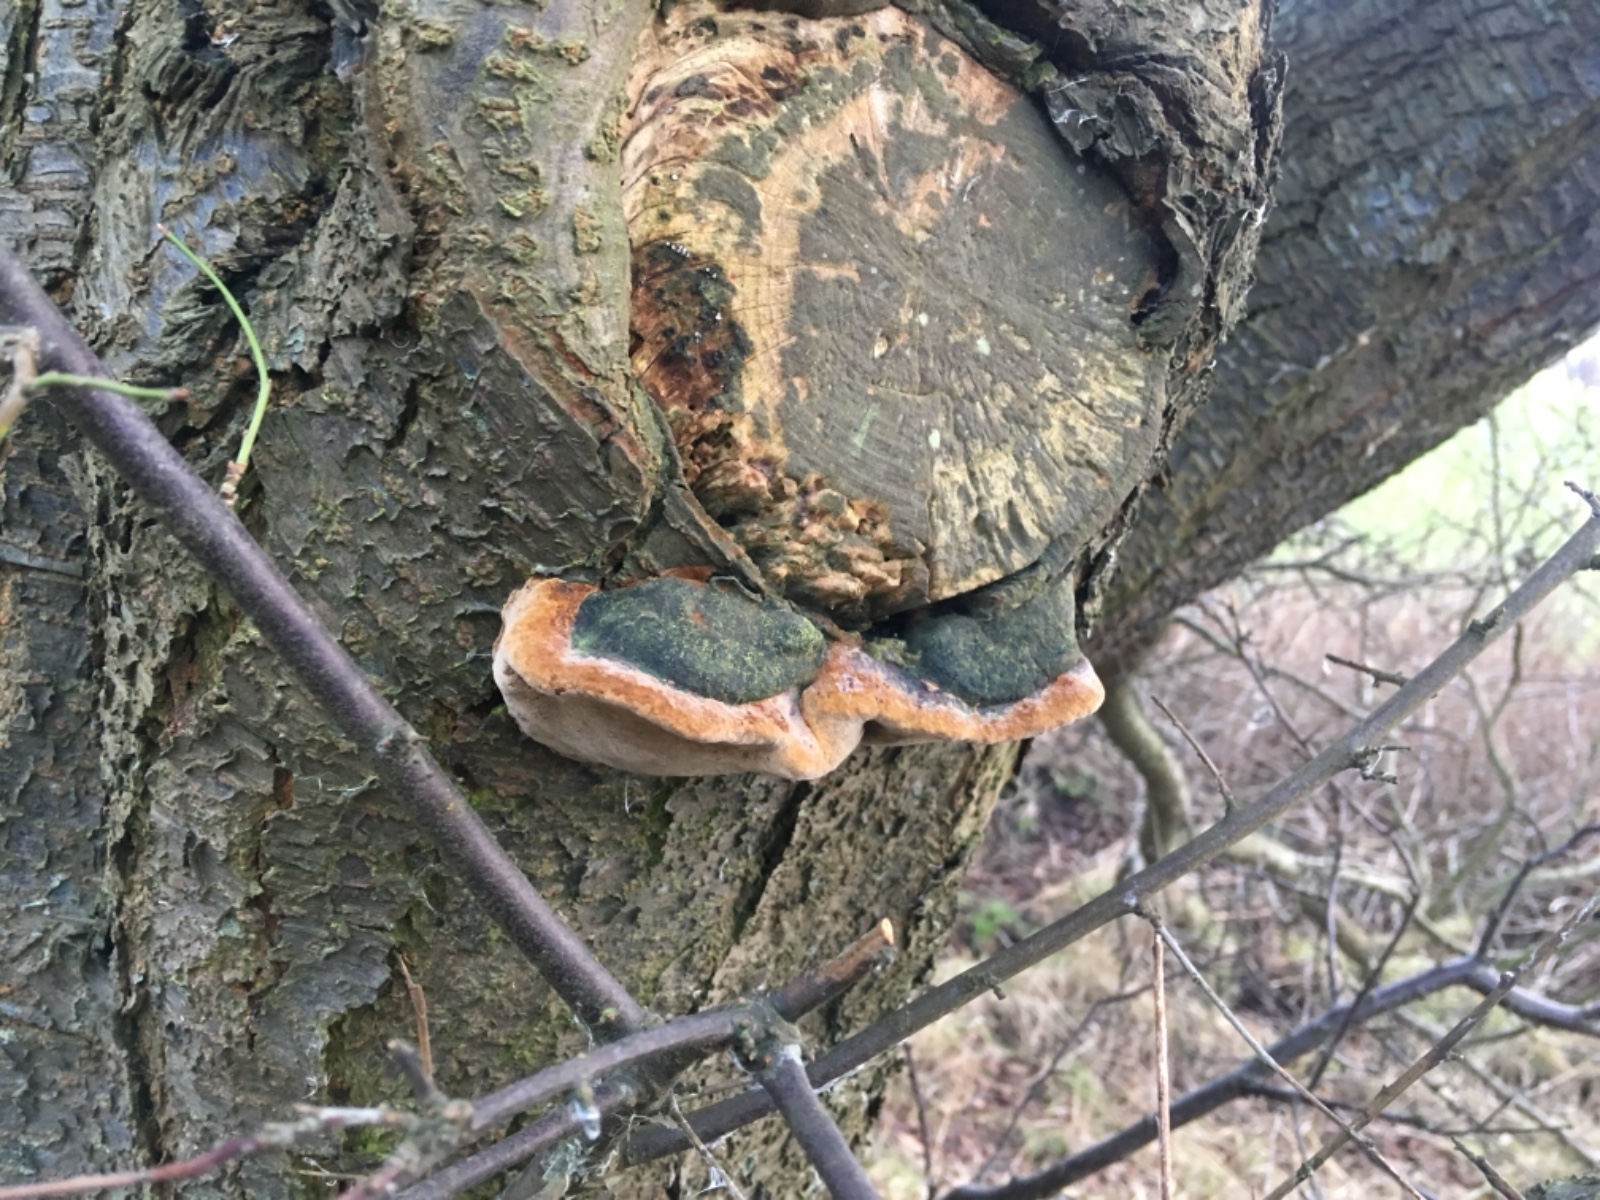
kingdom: Fungi
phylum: Basidiomycota
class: Agaricomycetes
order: Hymenochaetales
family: Hymenochaetaceae
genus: Phellinus
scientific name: Phellinus pomaceus
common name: blomme-ildporesvamp
